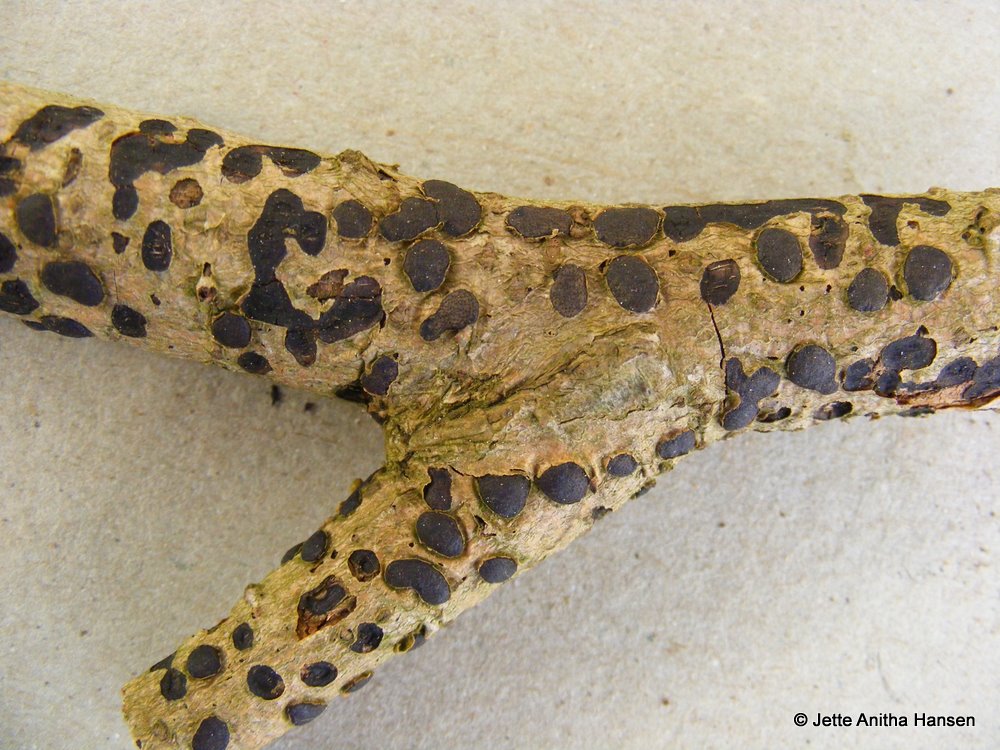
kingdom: Fungi
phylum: Ascomycota
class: Sordariomycetes
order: Xylariales
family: Diatrypaceae
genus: Diatrype
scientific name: Diatrype bullata
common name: pile-kulskorpe
